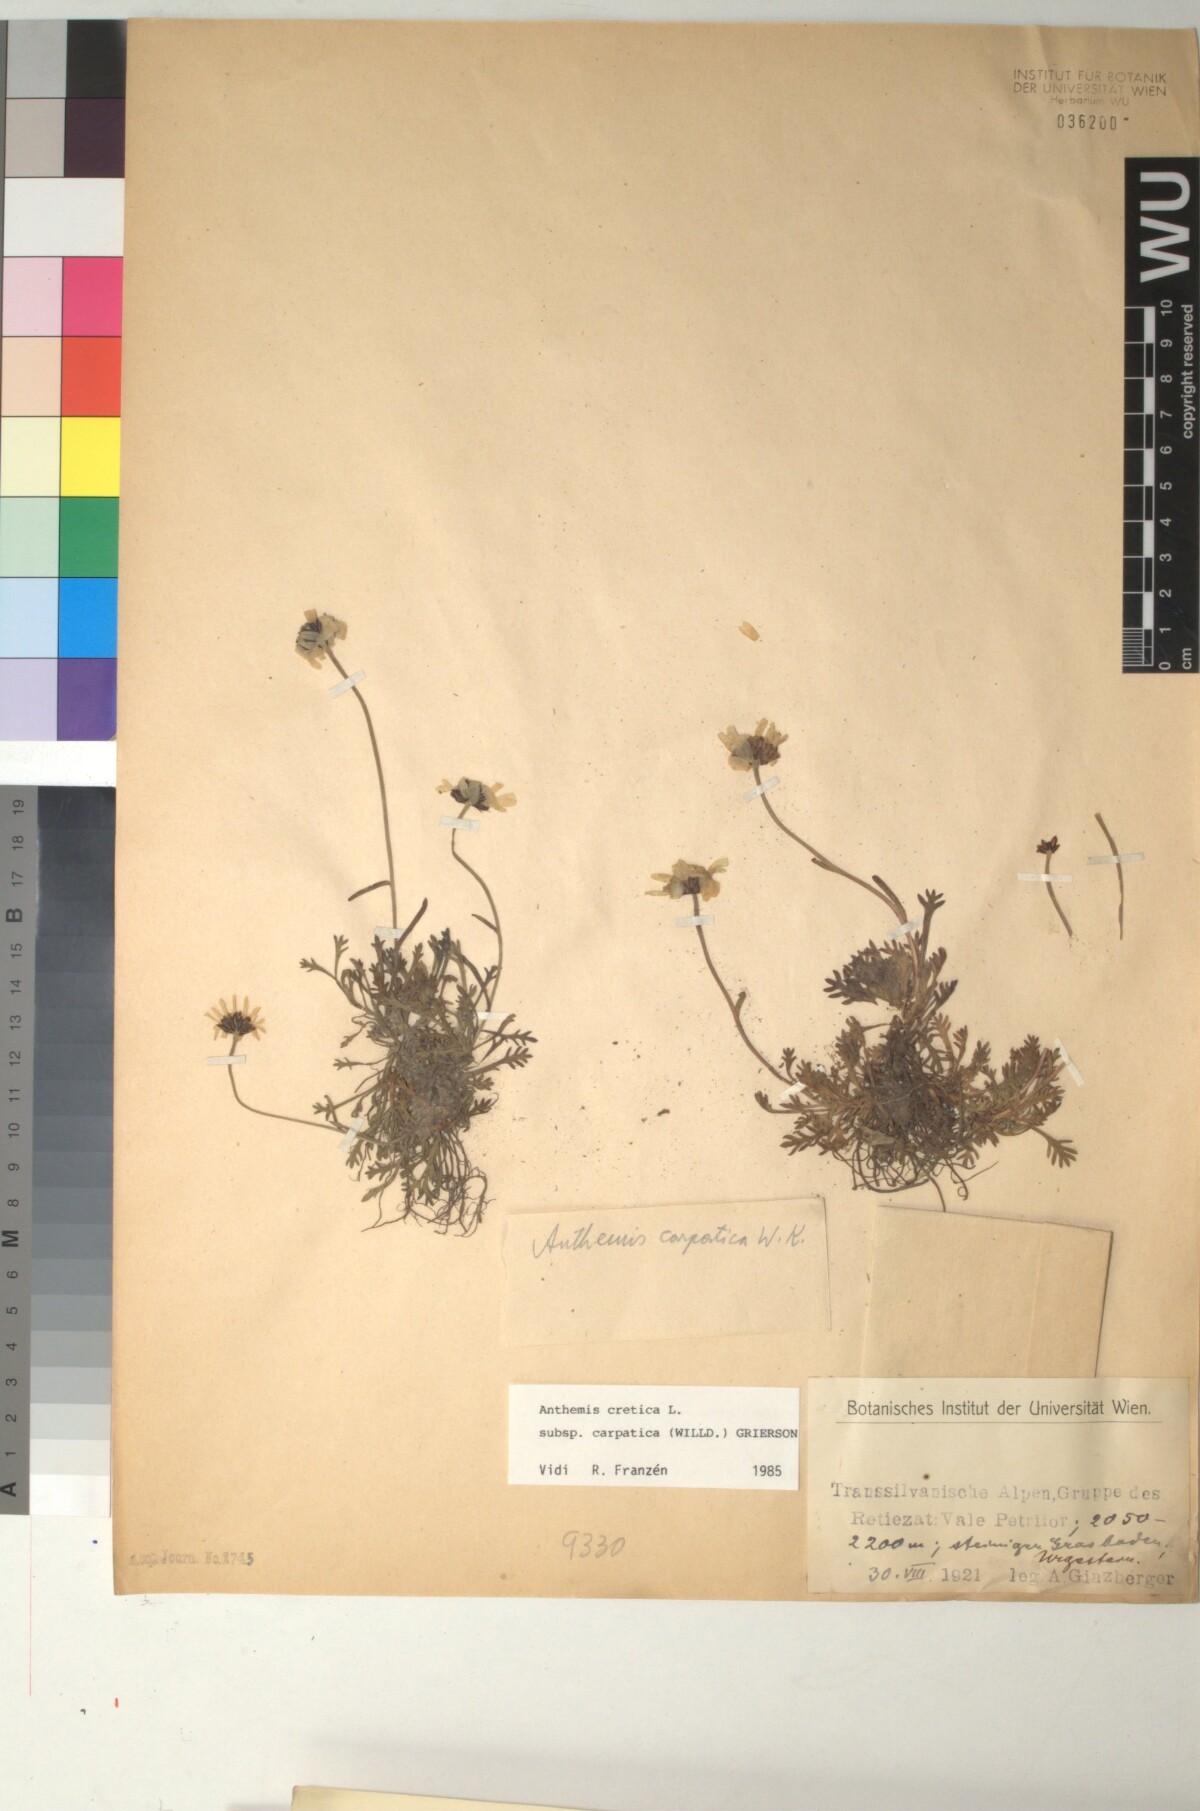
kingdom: Plantae
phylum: Tracheophyta
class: Magnoliopsida
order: Asterales
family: Asteraceae
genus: Anthemis
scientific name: Anthemis cretica
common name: Mountain dog-daisy
